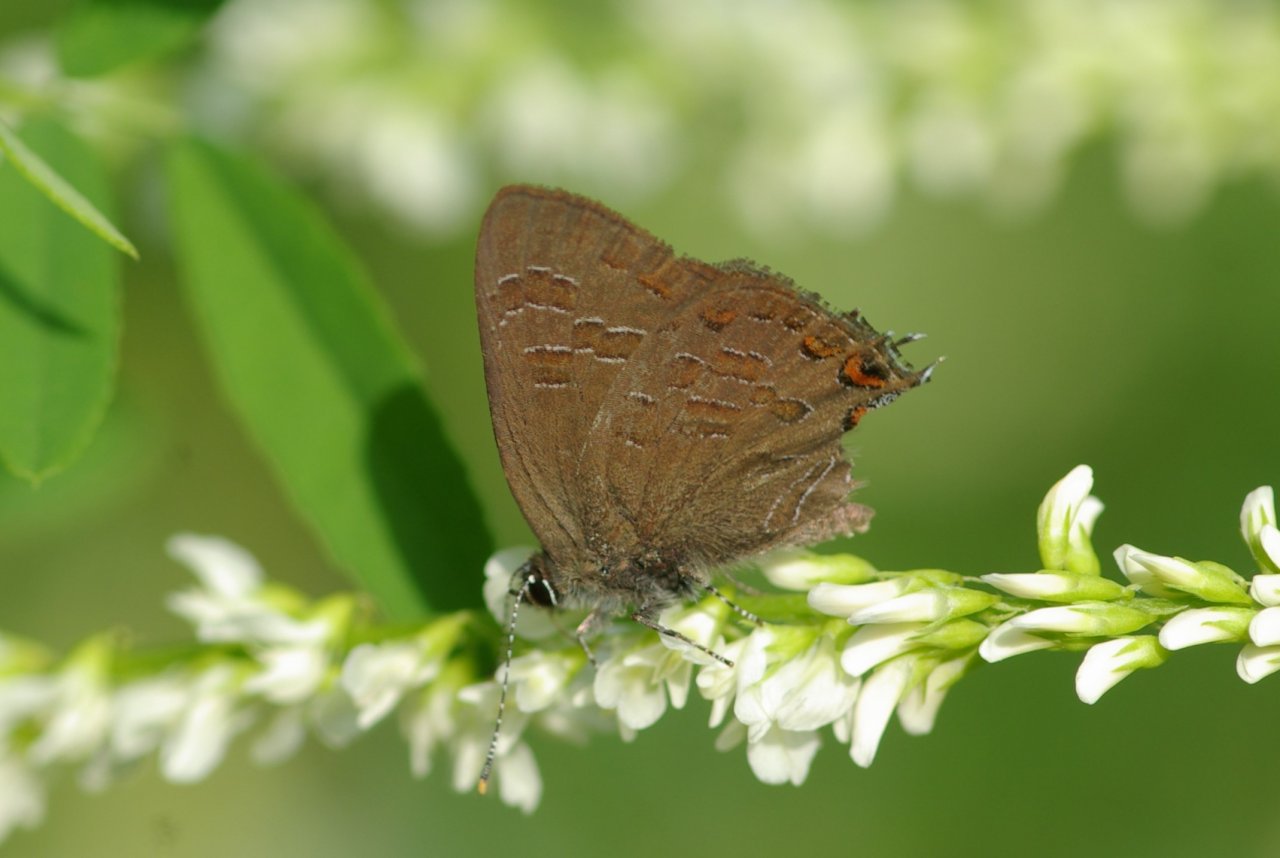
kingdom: Animalia
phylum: Arthropoda
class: Insecta
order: Lepidoptera
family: Lycaenidae
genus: Satyrium
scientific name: Satyrium liparops
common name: Striped Hairstreak
